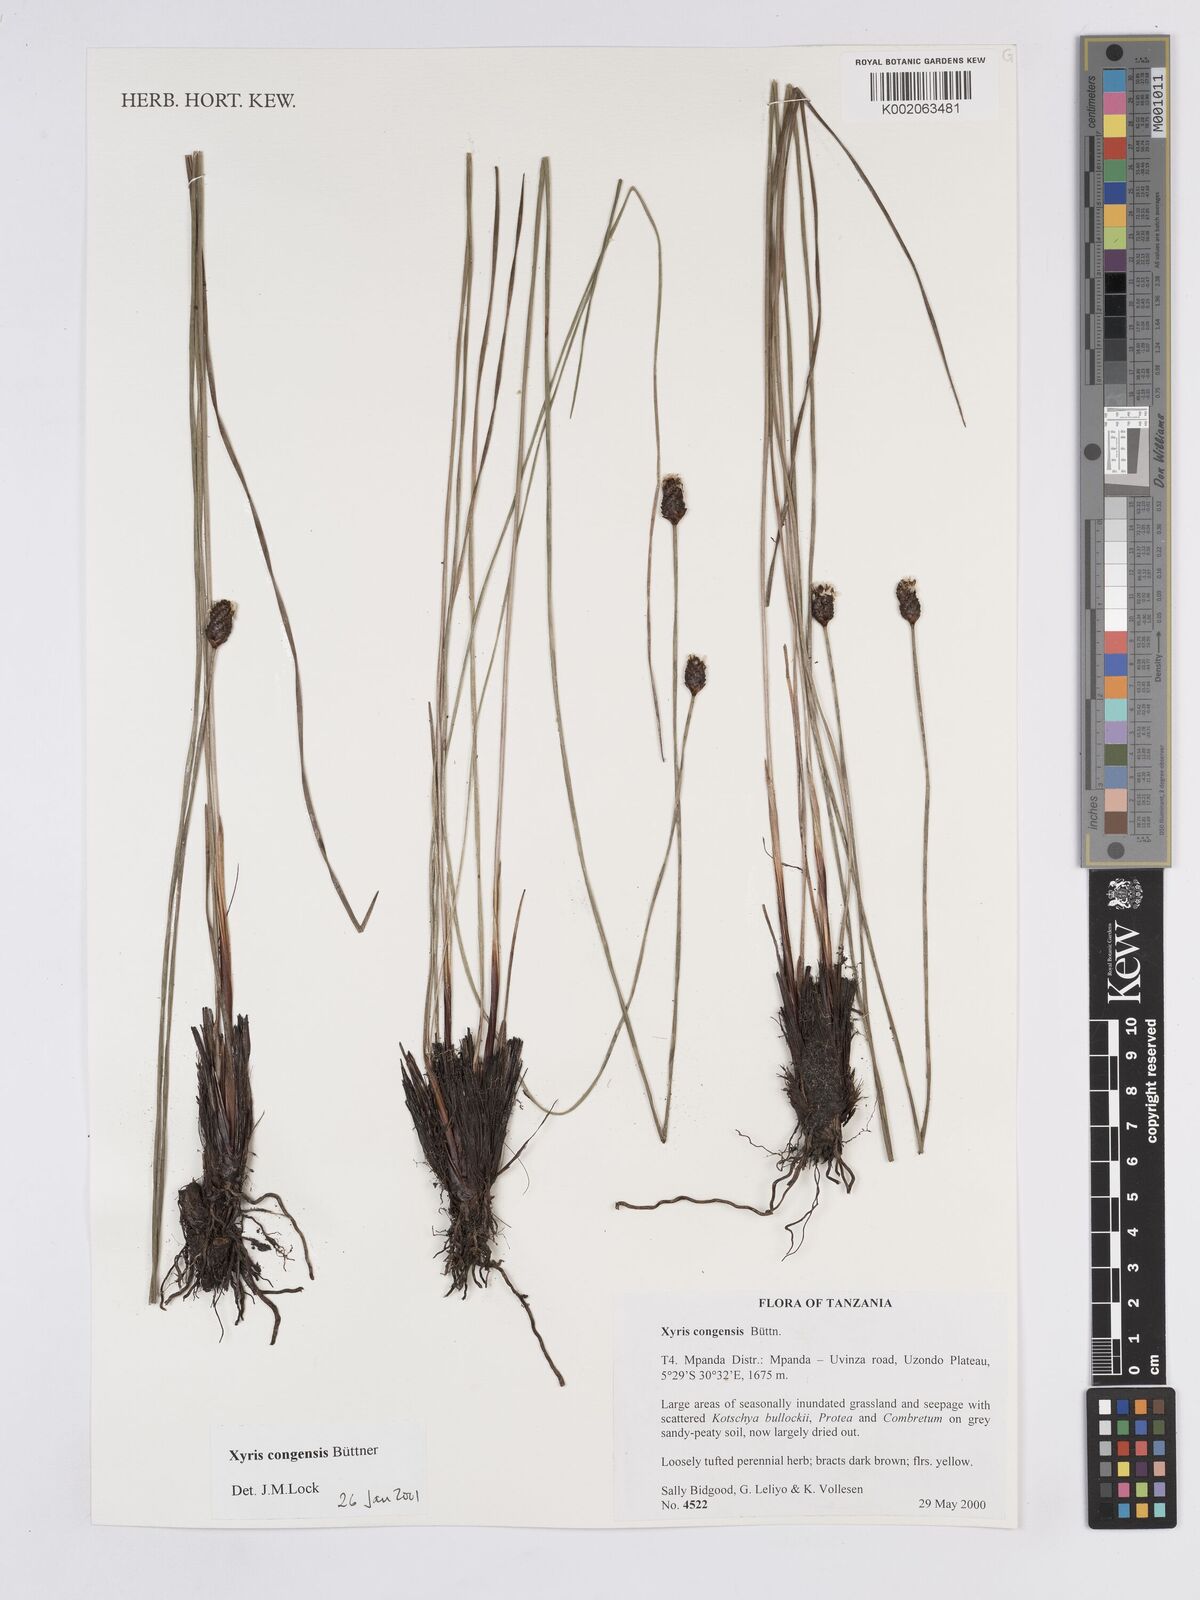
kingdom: Plantae
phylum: Tracheophyta
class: Liliopsida
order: Poales
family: Xyridaceae
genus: Xyris
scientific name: Xyris congensis
